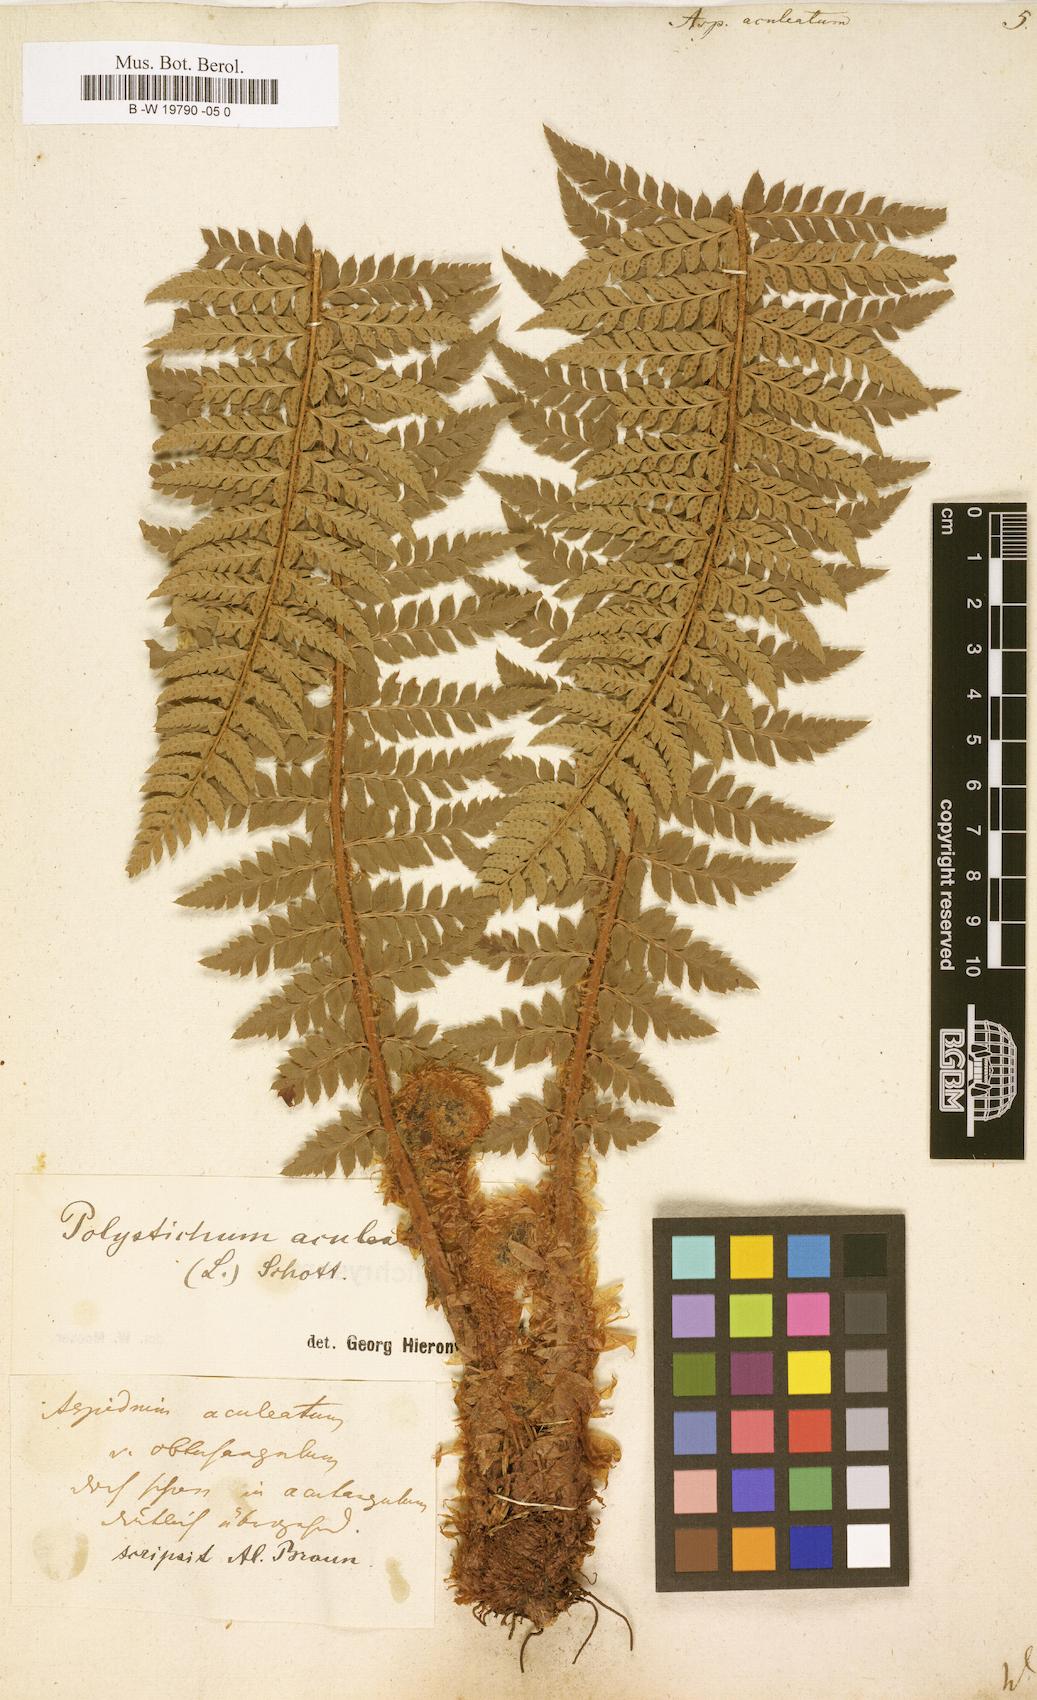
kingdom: Plantae
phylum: Tracheophyta
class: Polypodiopsida
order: Polypodiales
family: Dryopteridaceae
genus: Polystichum
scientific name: Polystichum aculeatum
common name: Hard shield-fern
